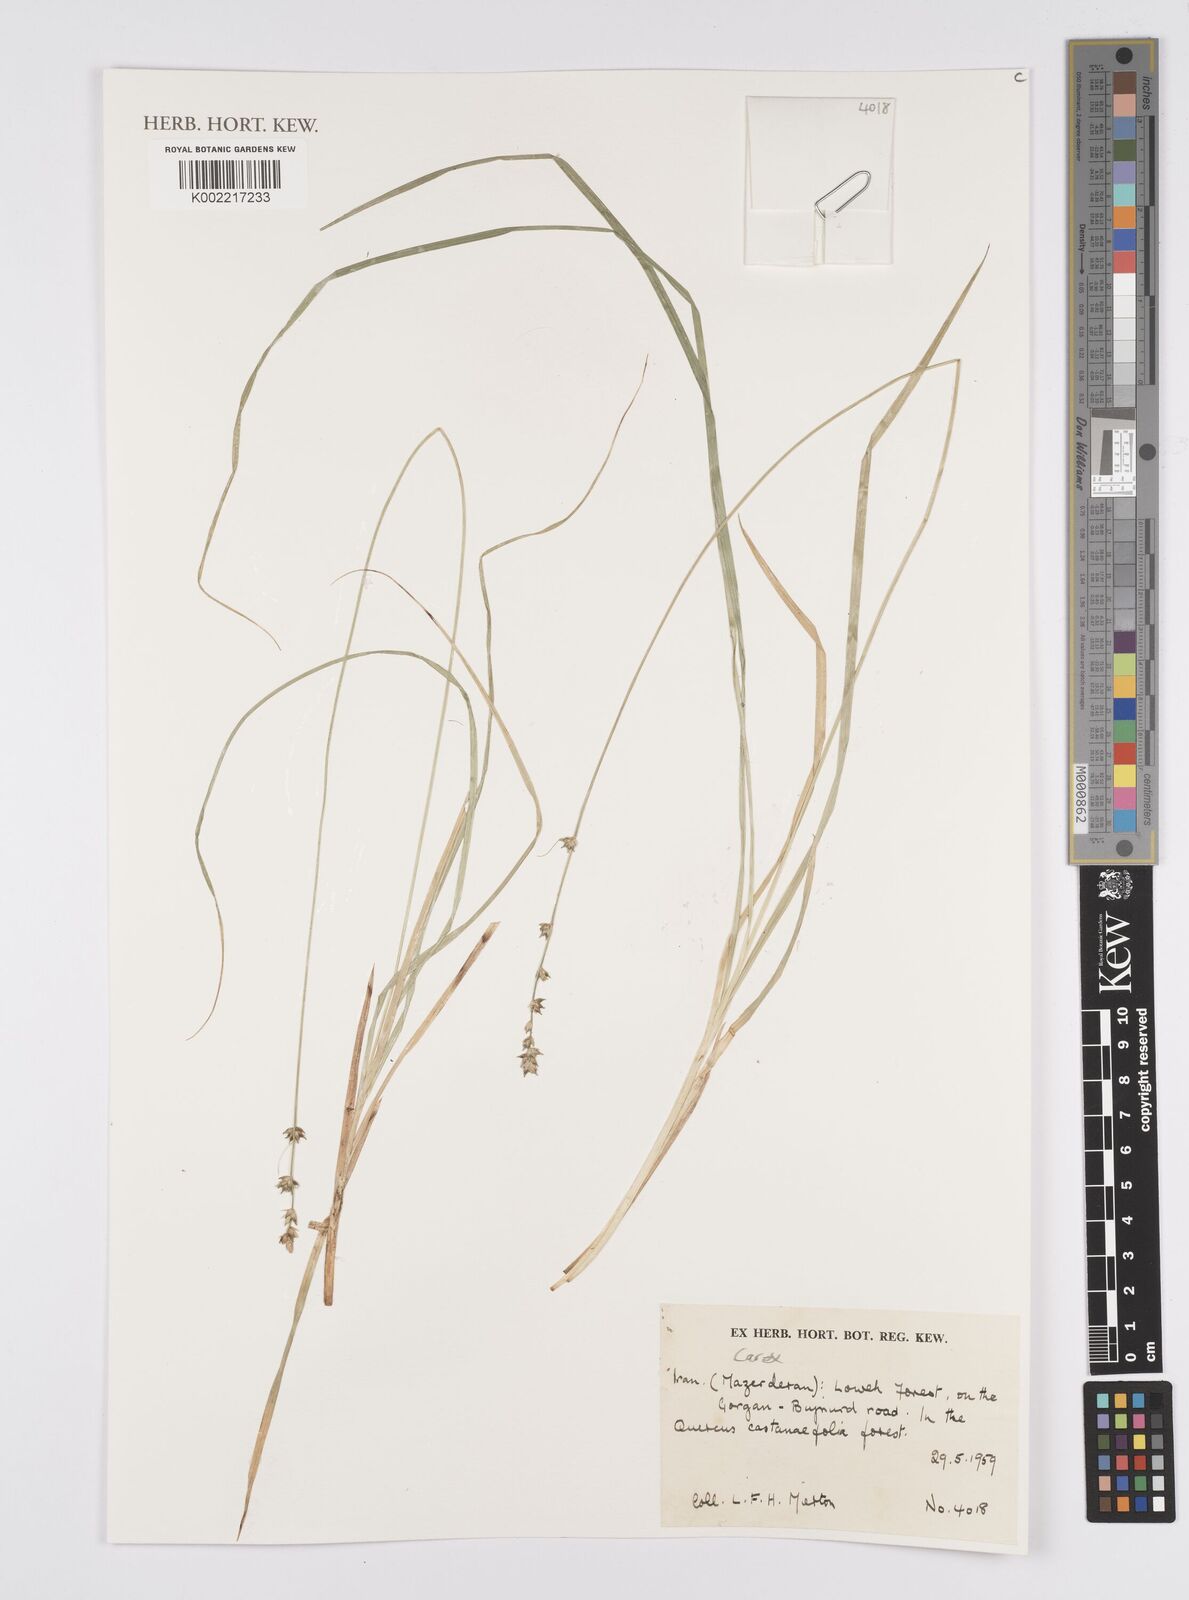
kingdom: Plantae
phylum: Tracheophyta
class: Liliopsida
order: Poales
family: Cyperaceae
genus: Carex
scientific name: Carex
